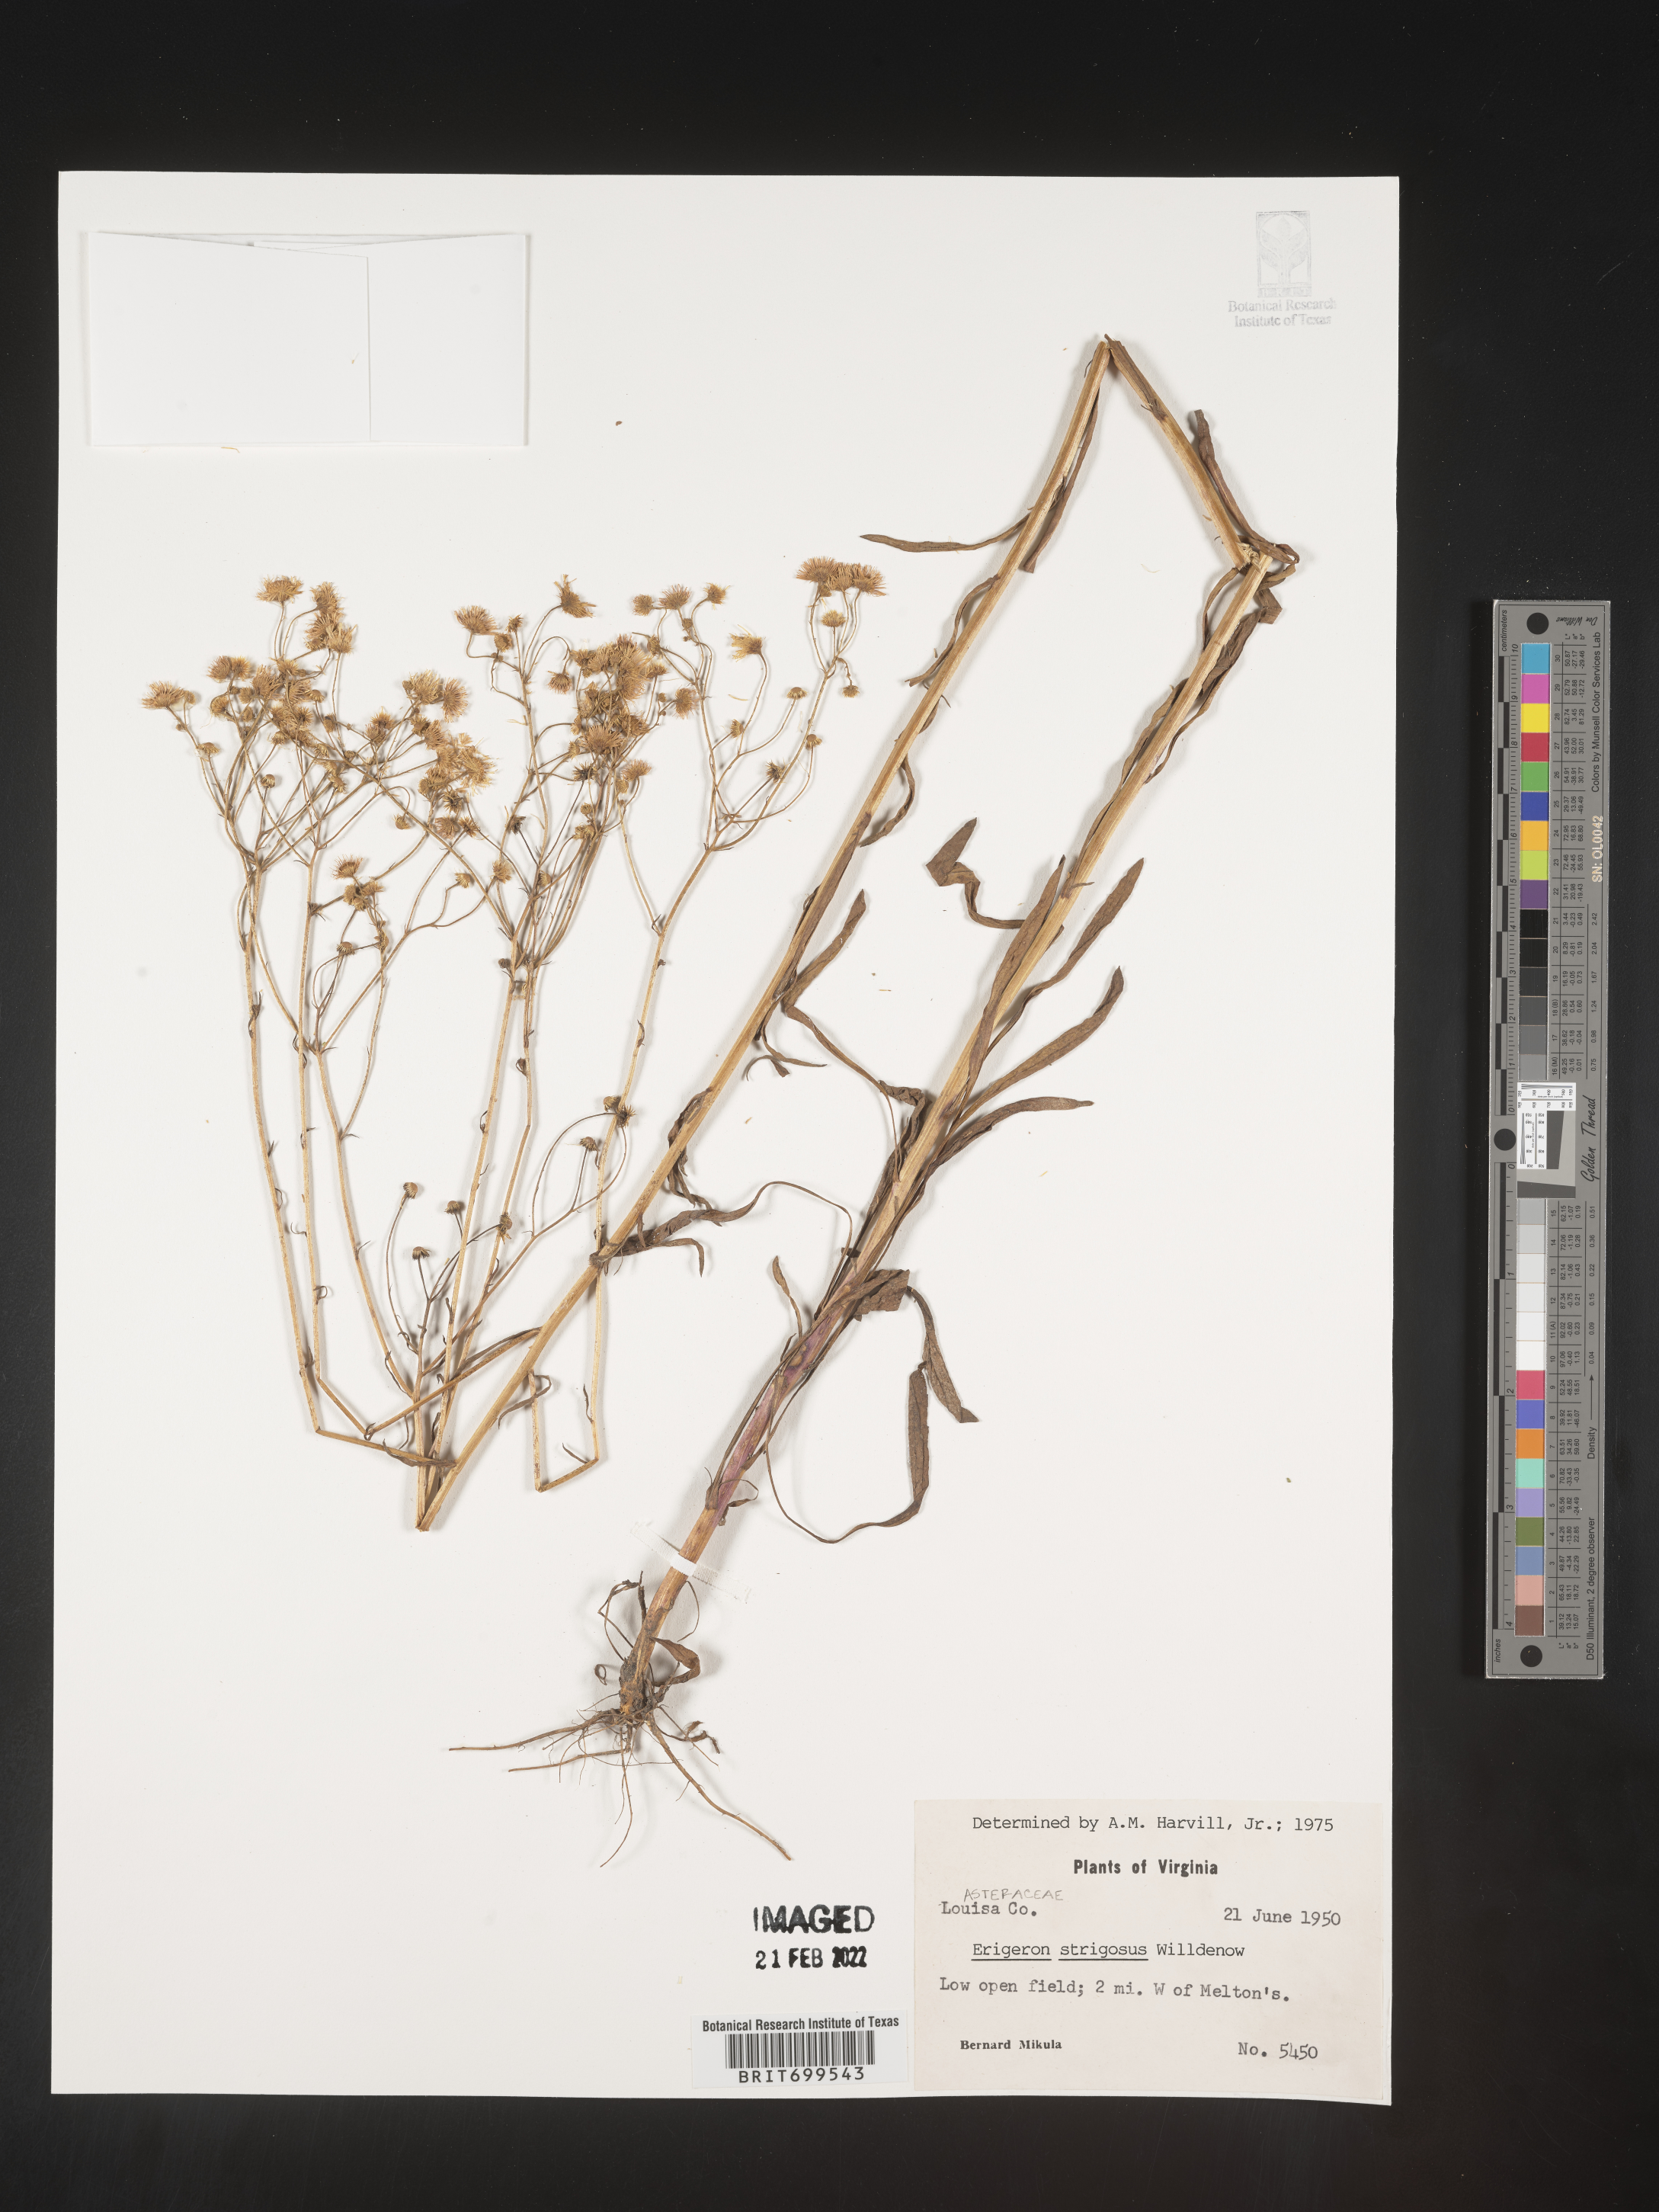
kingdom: Plantae
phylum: Tracheophyta
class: Magnoliopsida
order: Asterales
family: Asteraceae
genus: Erigeron
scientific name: Erigeron strigosus
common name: Common eastern fleabane
